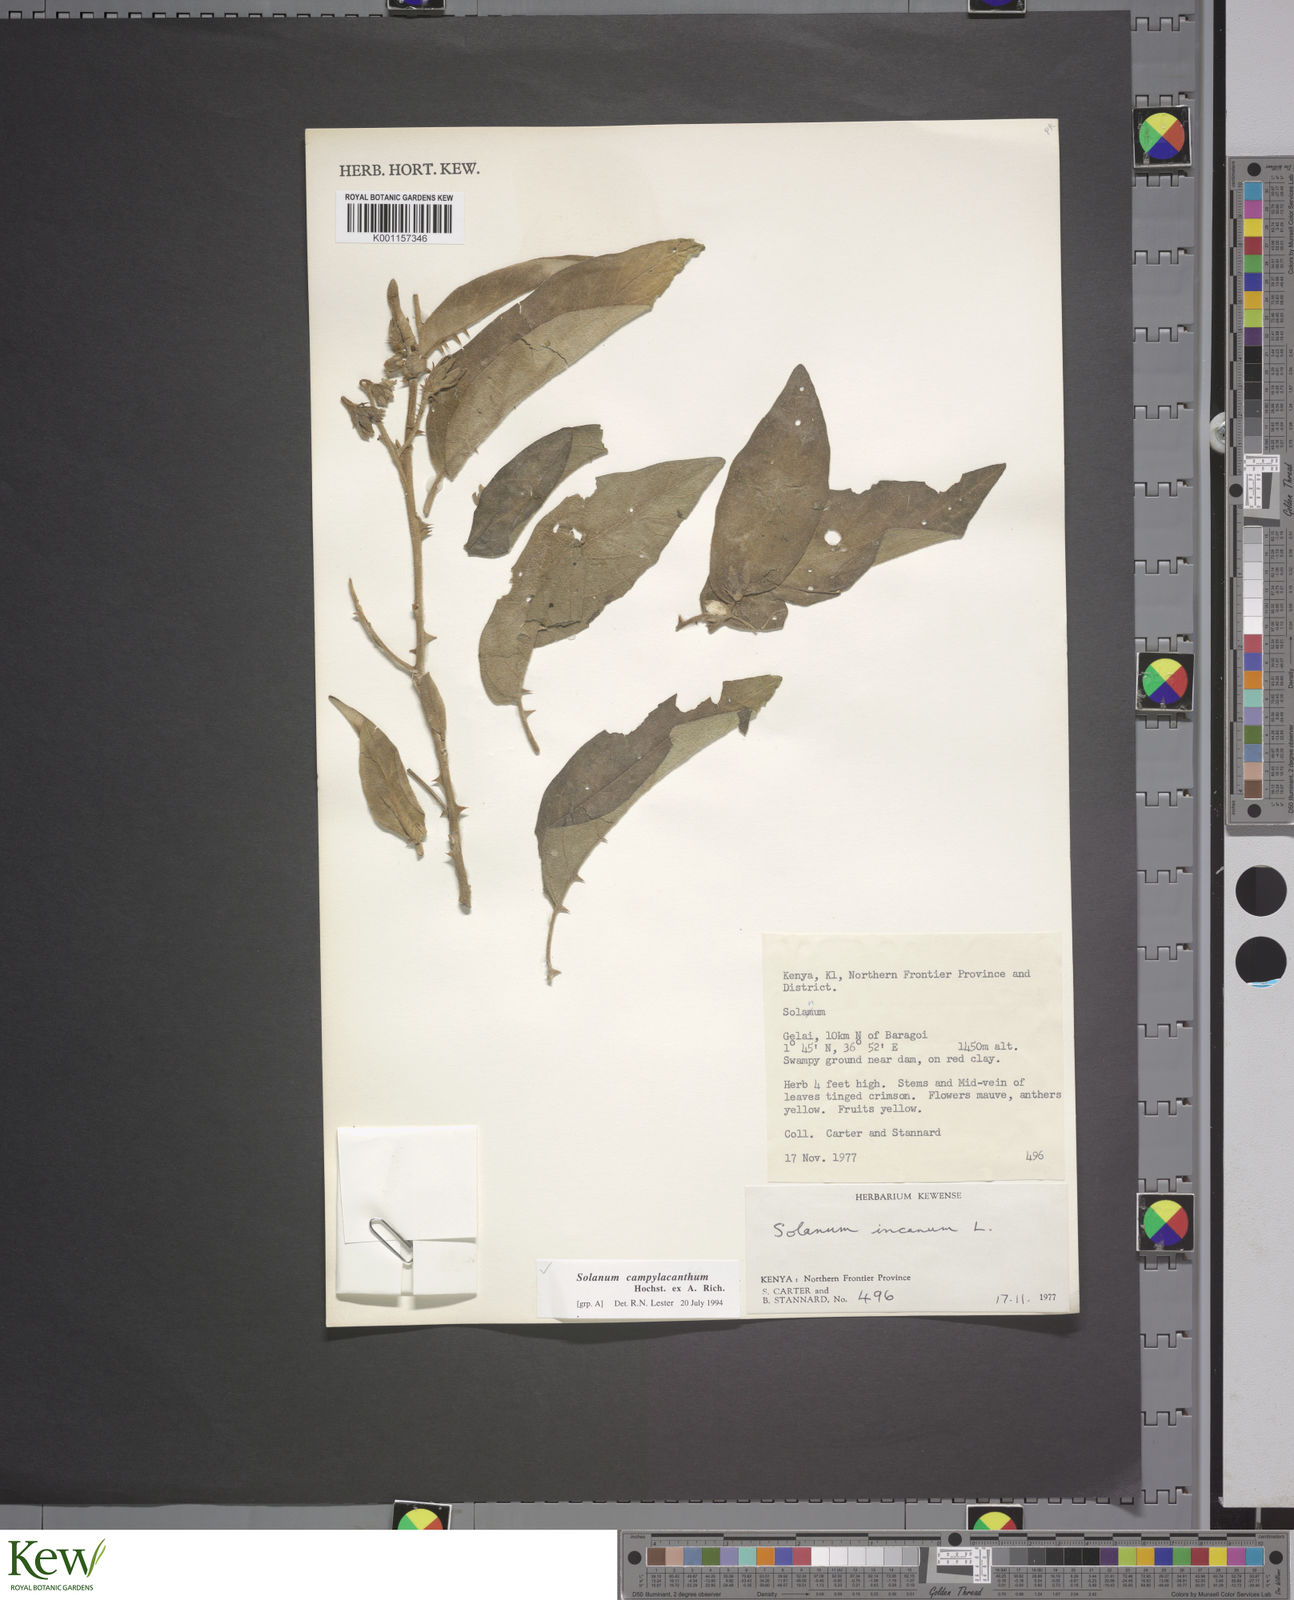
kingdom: Plantae
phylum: Tracheophyta
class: Magnoliopsida
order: Solanales
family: Solanaceae
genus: Solanum
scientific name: Solanum campylacanthum
